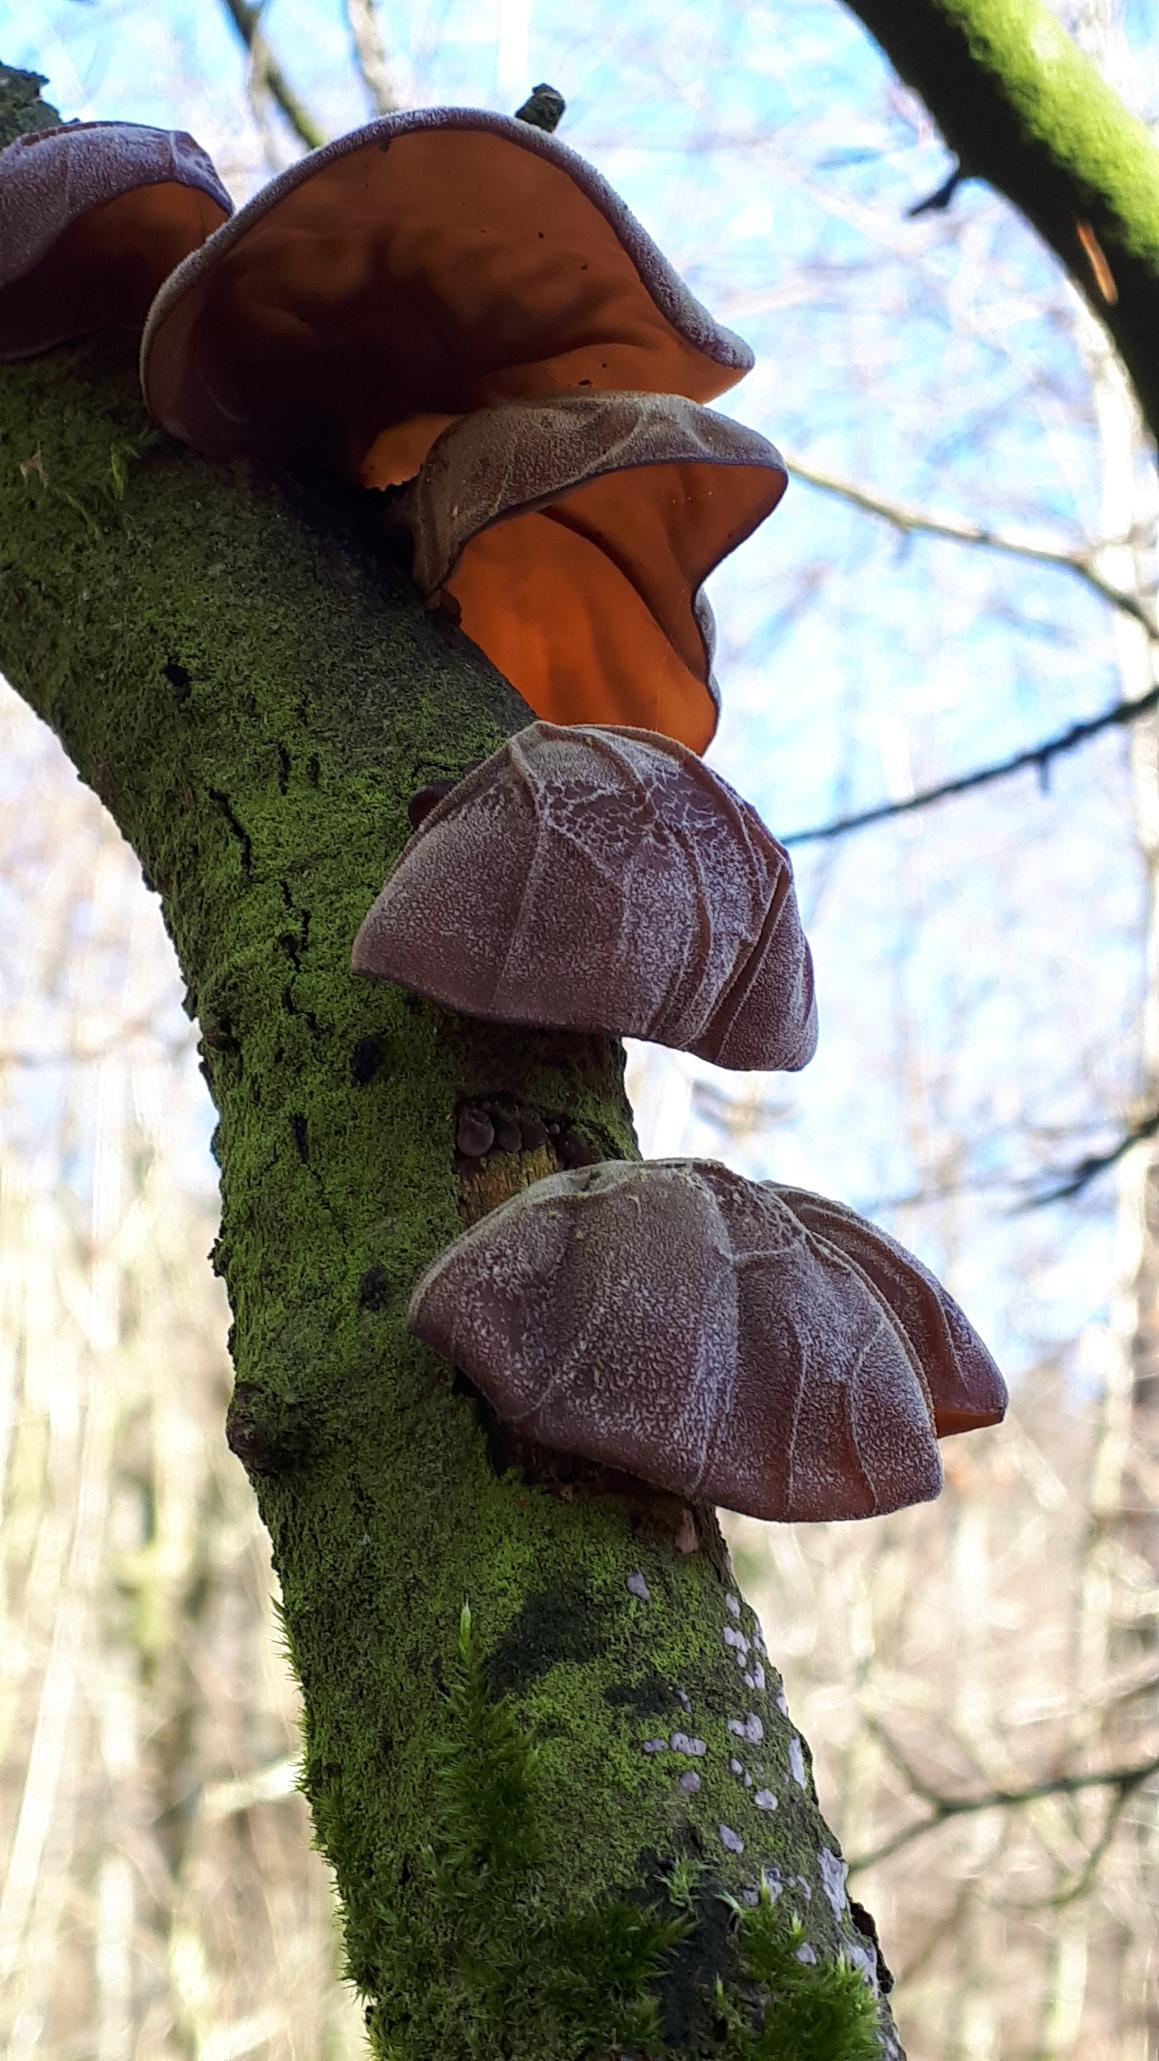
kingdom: Fungi
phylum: Basidiomycota
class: Agaricomycetes
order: Auriculariales
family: Auriculariaceae
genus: Auricularia
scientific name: Auricularia auricula-judae
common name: Almindelig judasøre
